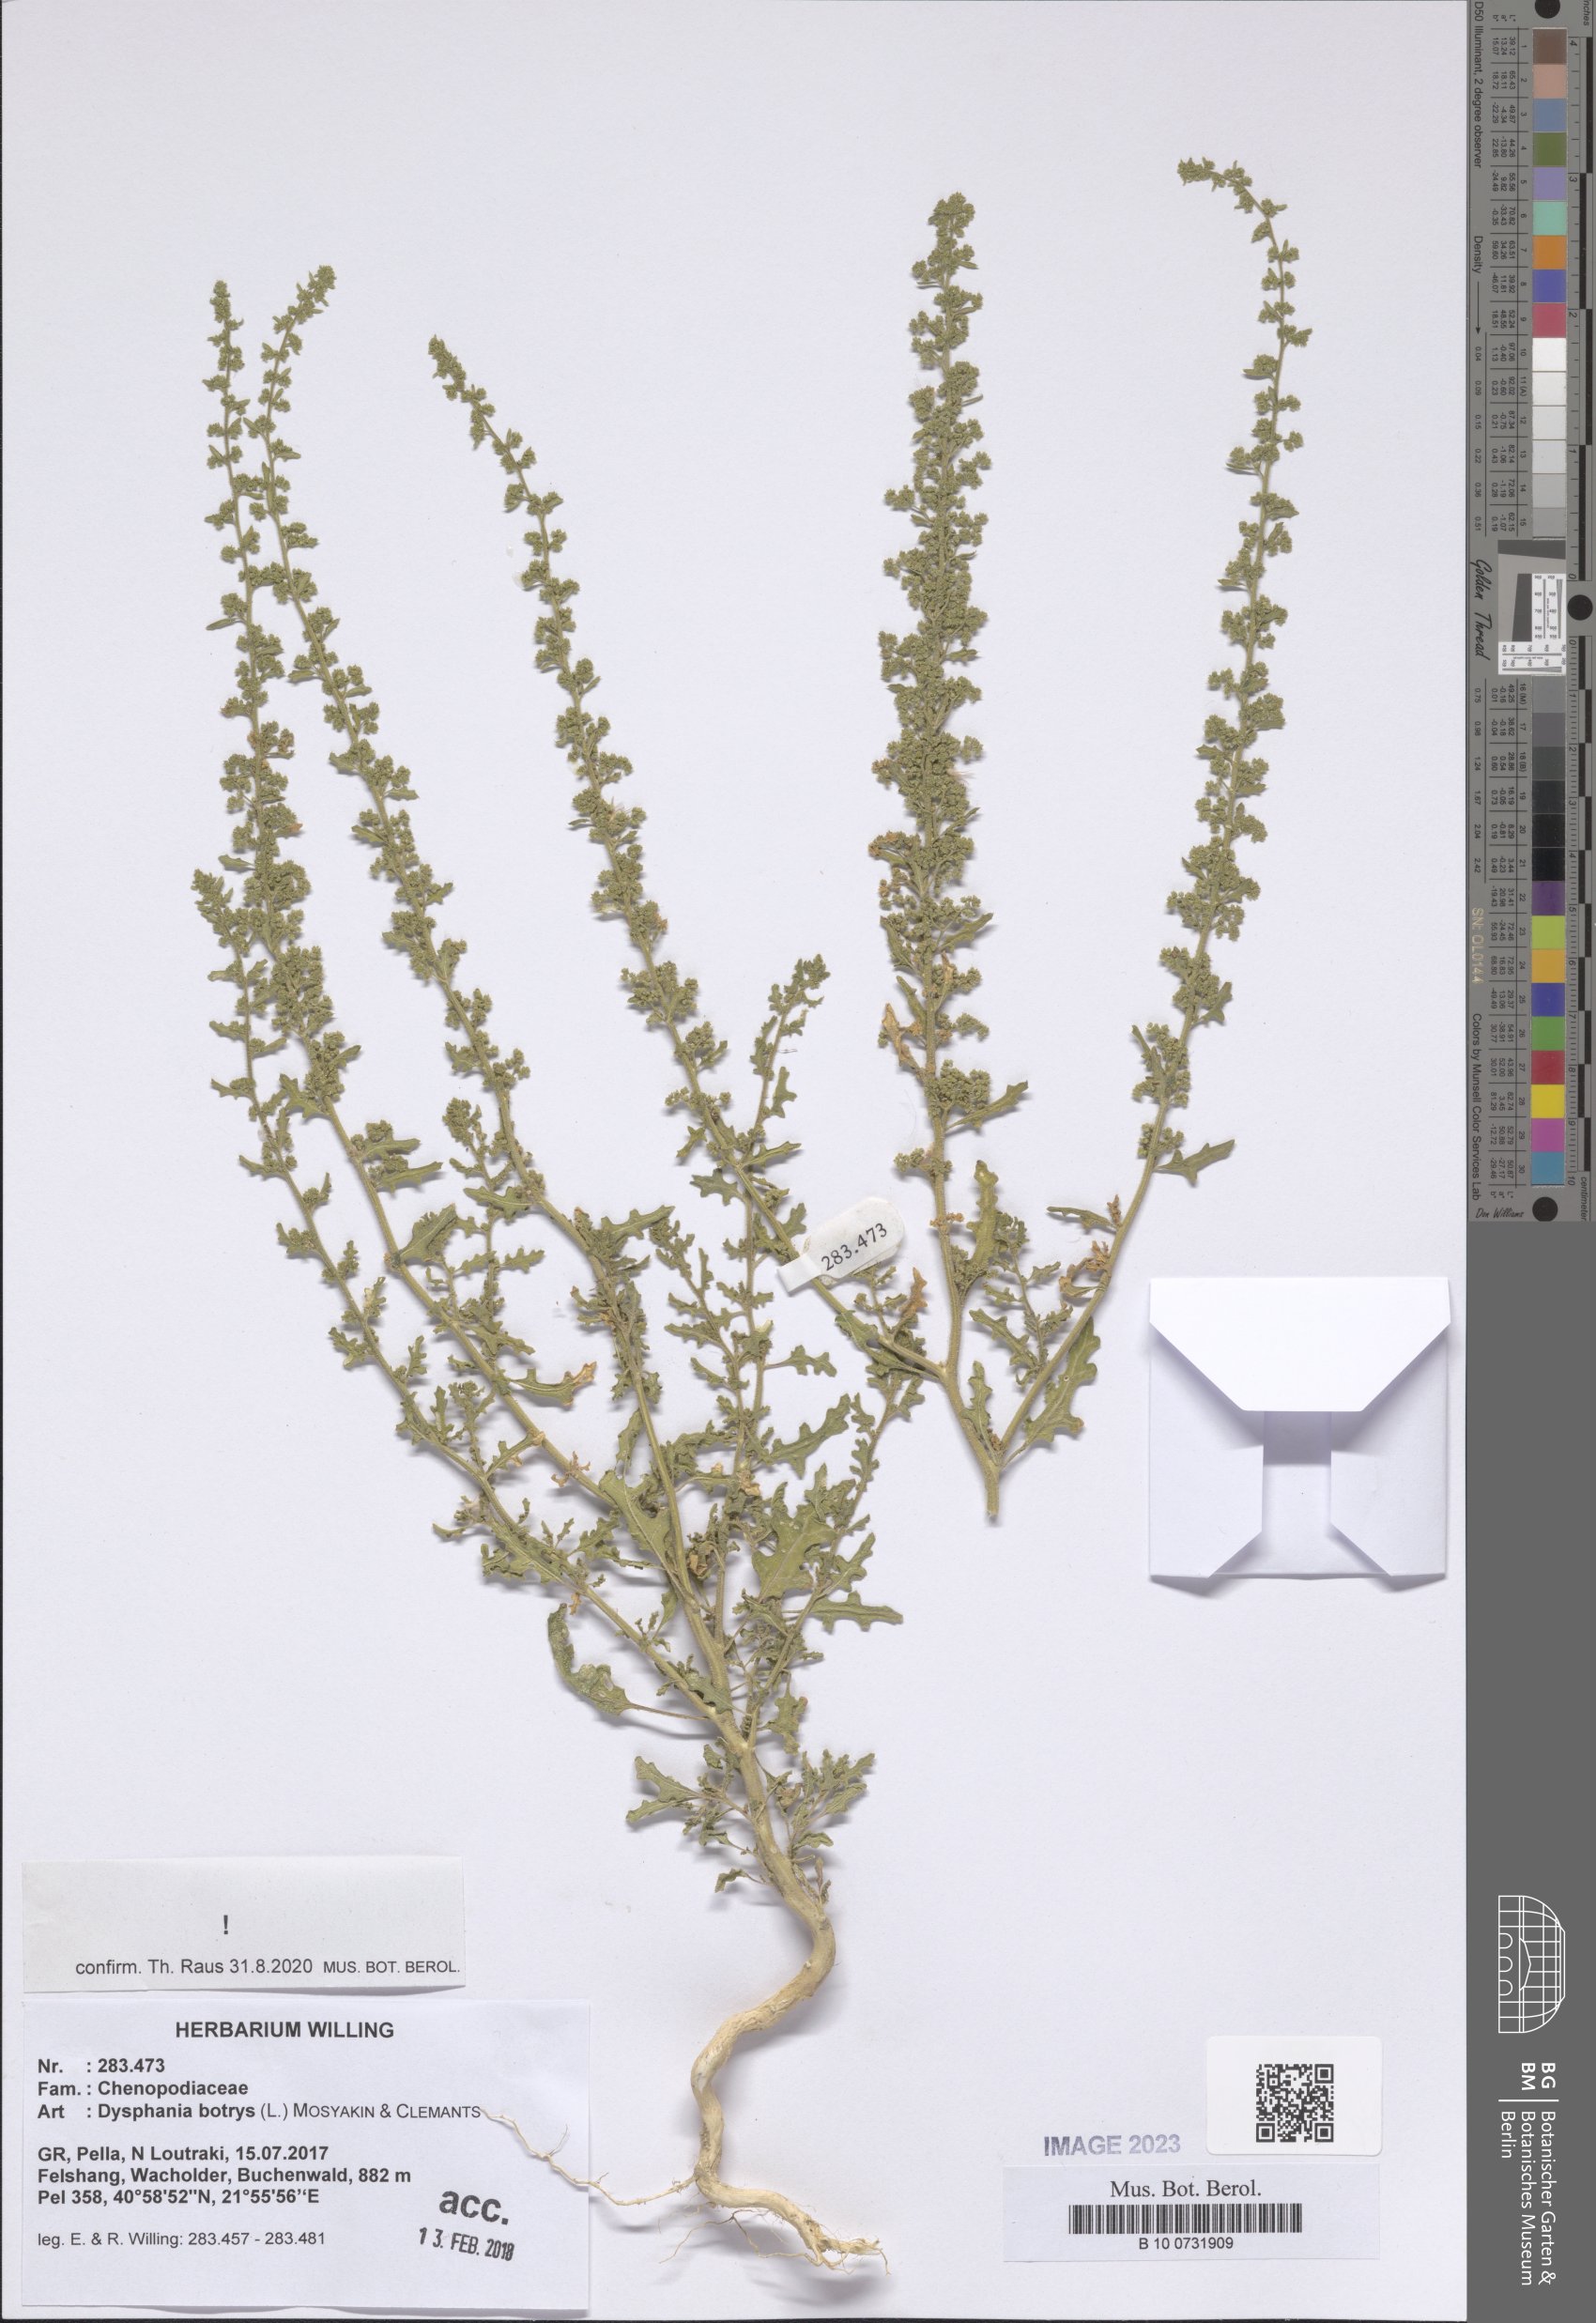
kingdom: Plantae
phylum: Tracheophyta
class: Magnoliopsida
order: Caryophyllales
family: Amaranthaceae
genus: Dysphania
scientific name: Dysphania botrys
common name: Feather-geranium
